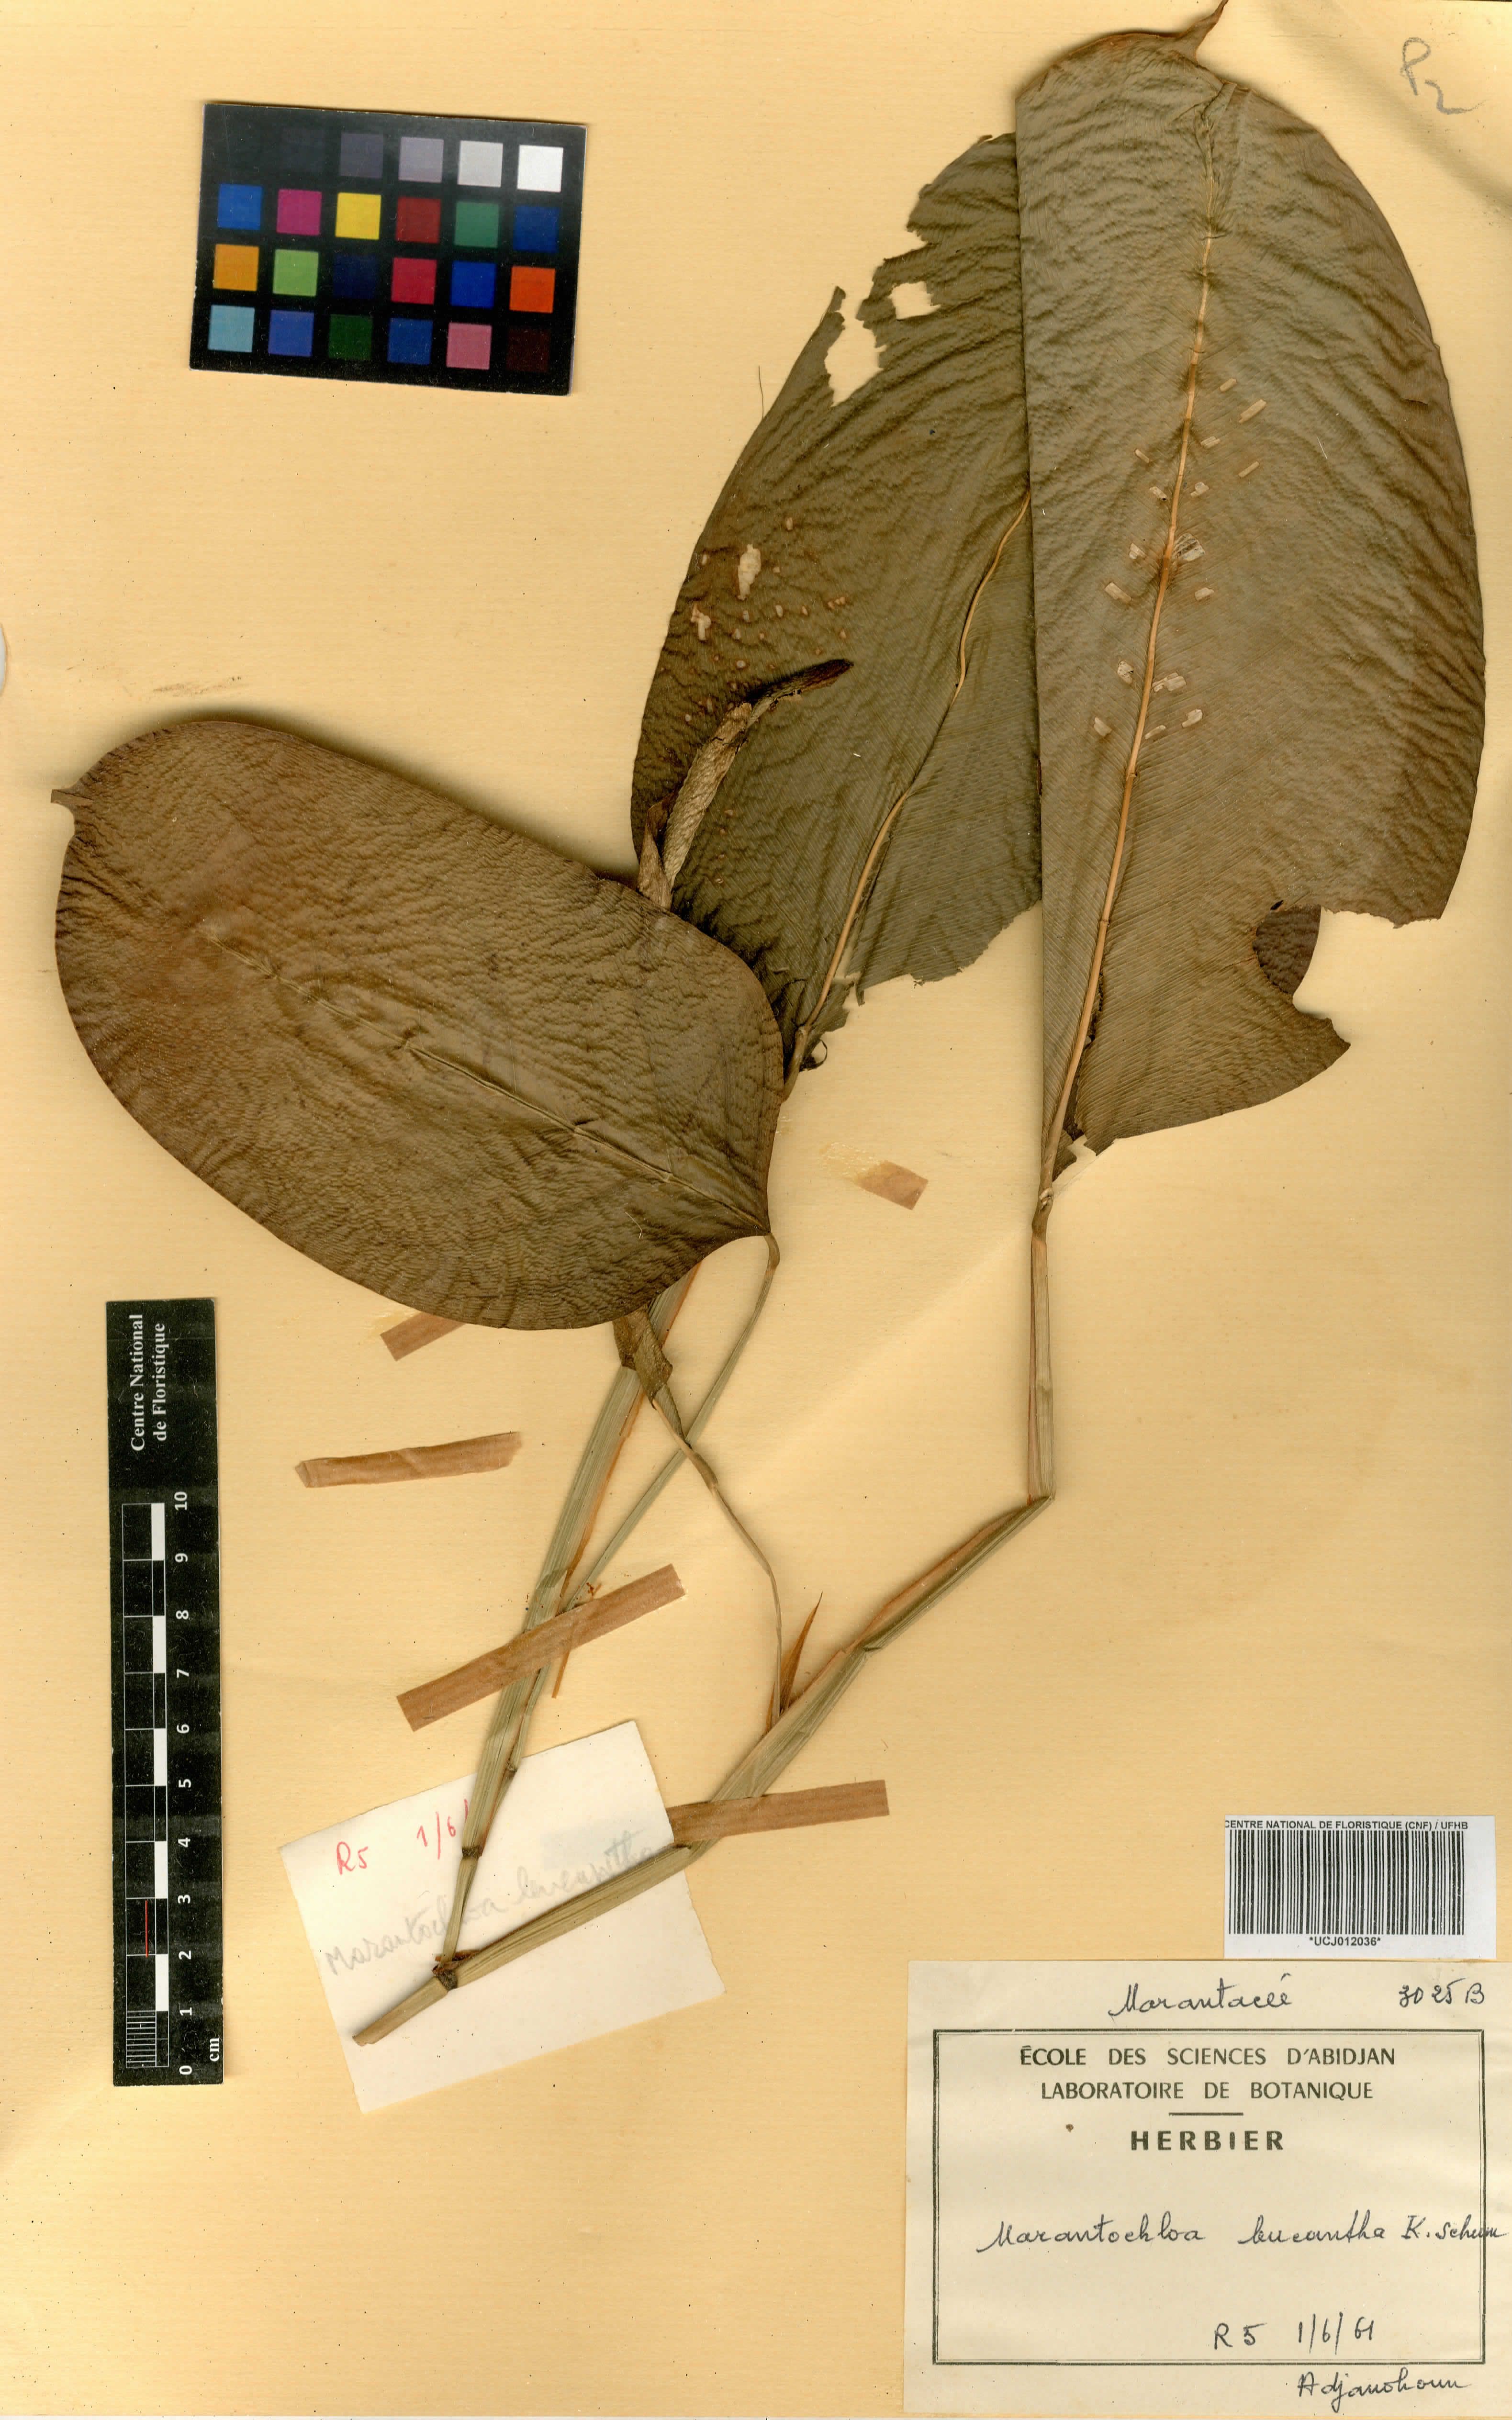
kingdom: Plantae
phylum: Tracheophyta
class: Liliopsida
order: Zingiberales
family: Marantaceae
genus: Marantochloa
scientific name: Marantochloa leucantha
